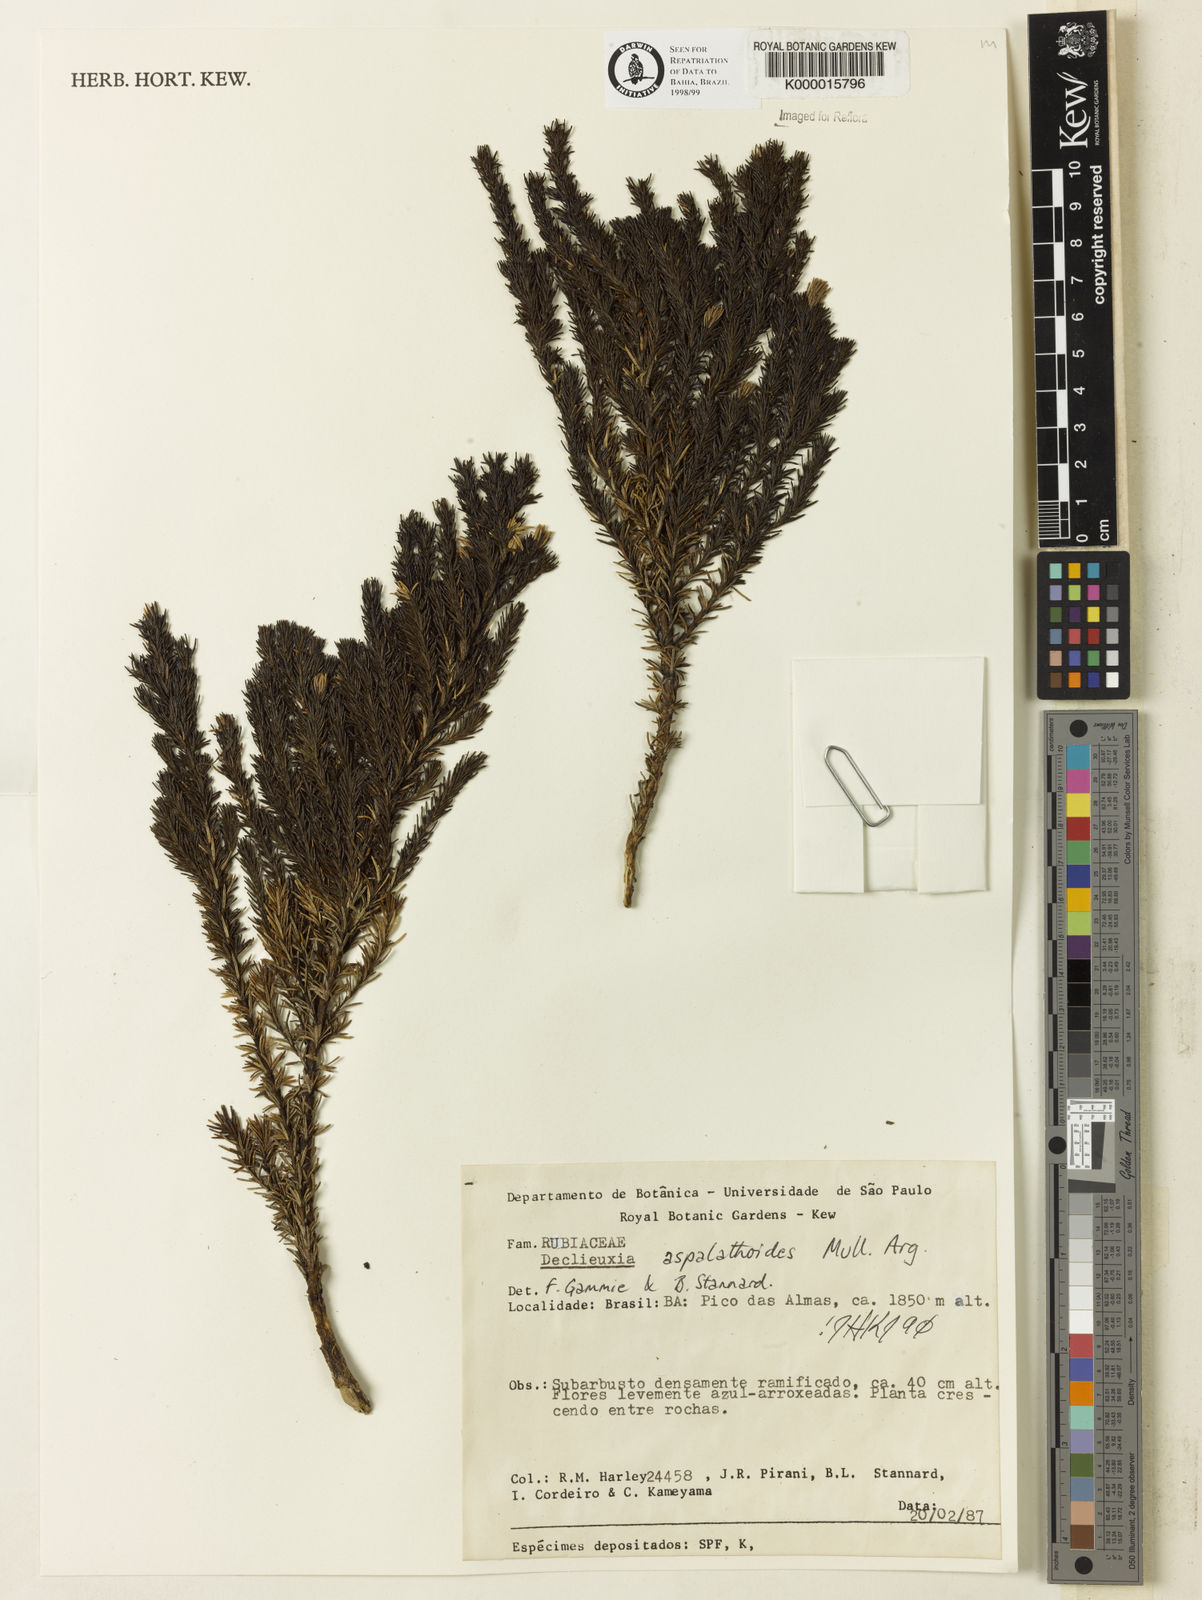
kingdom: Plantae
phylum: Tracheophyta
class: Magnoliopsida
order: Gentianales
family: Rubiaceae
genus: Declieuxia
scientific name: Declieuxia aspalathoides
